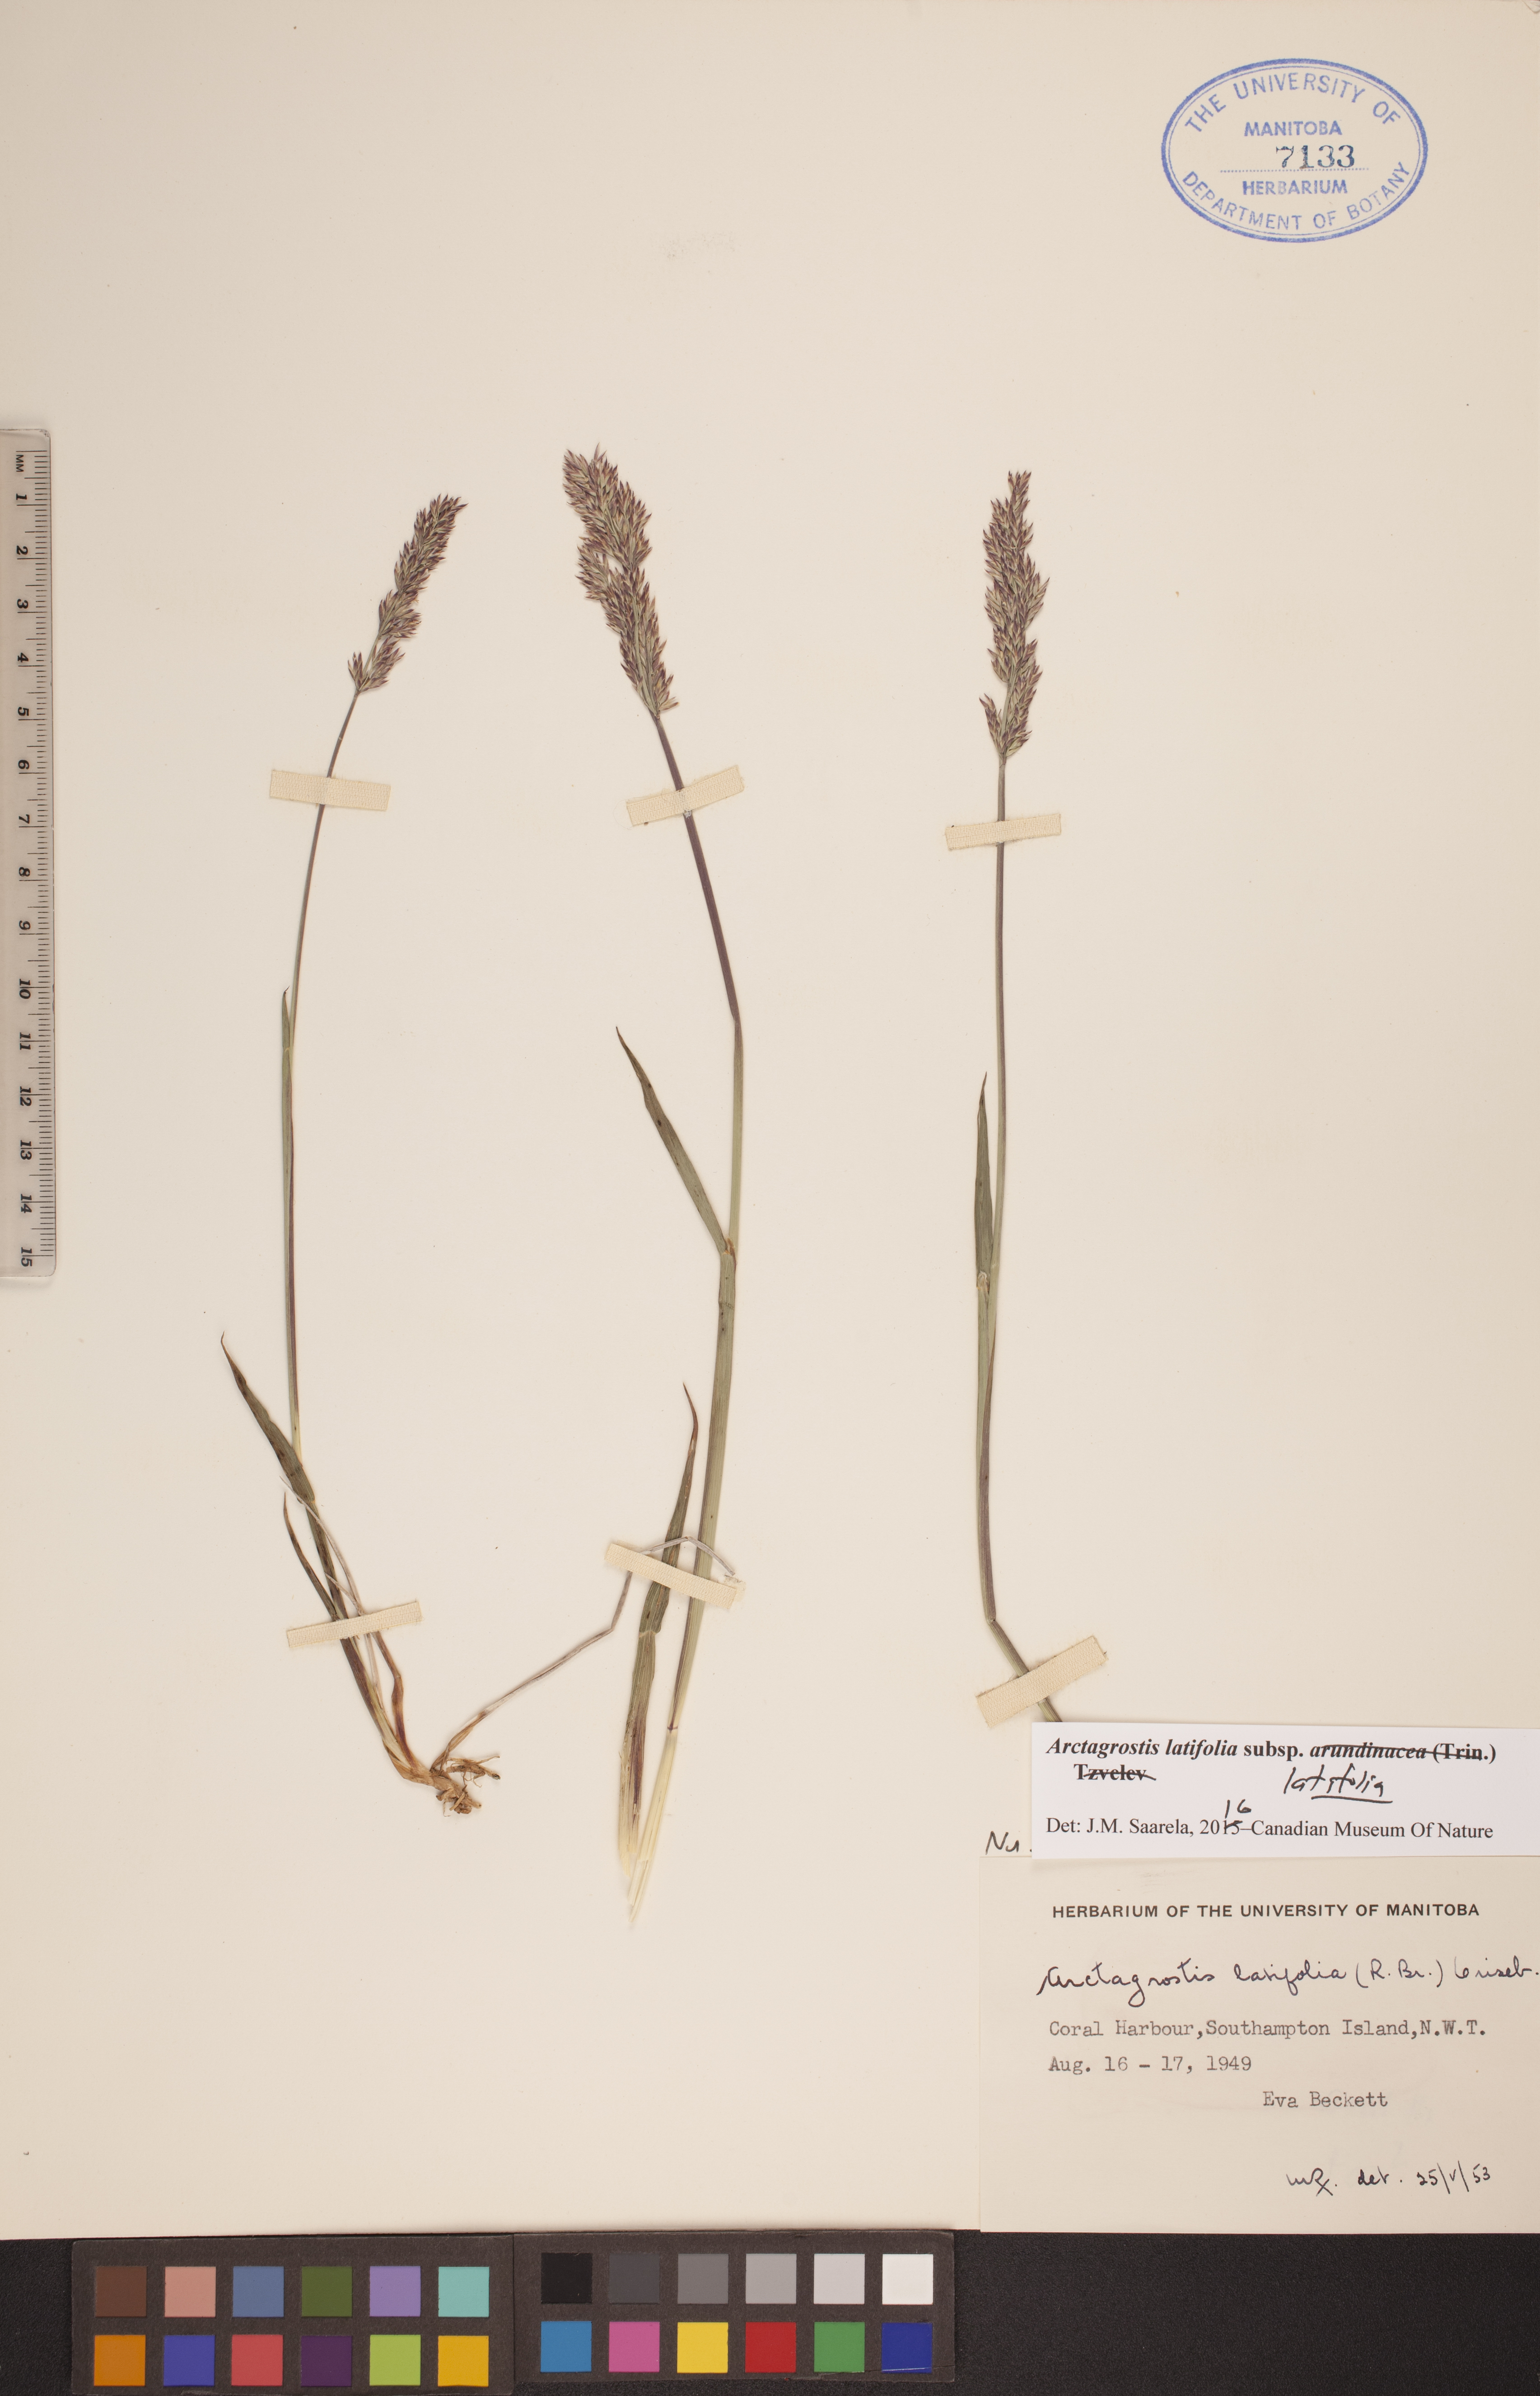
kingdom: Plantae
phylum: Tracheophyta
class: Liliopsida
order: Poales
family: Poaceae
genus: Arctagrostis
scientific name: Arctagrostis latifolia
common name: Arctic grass
